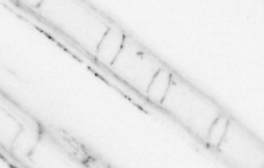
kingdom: Animalia
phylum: Chordata
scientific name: Chordata
